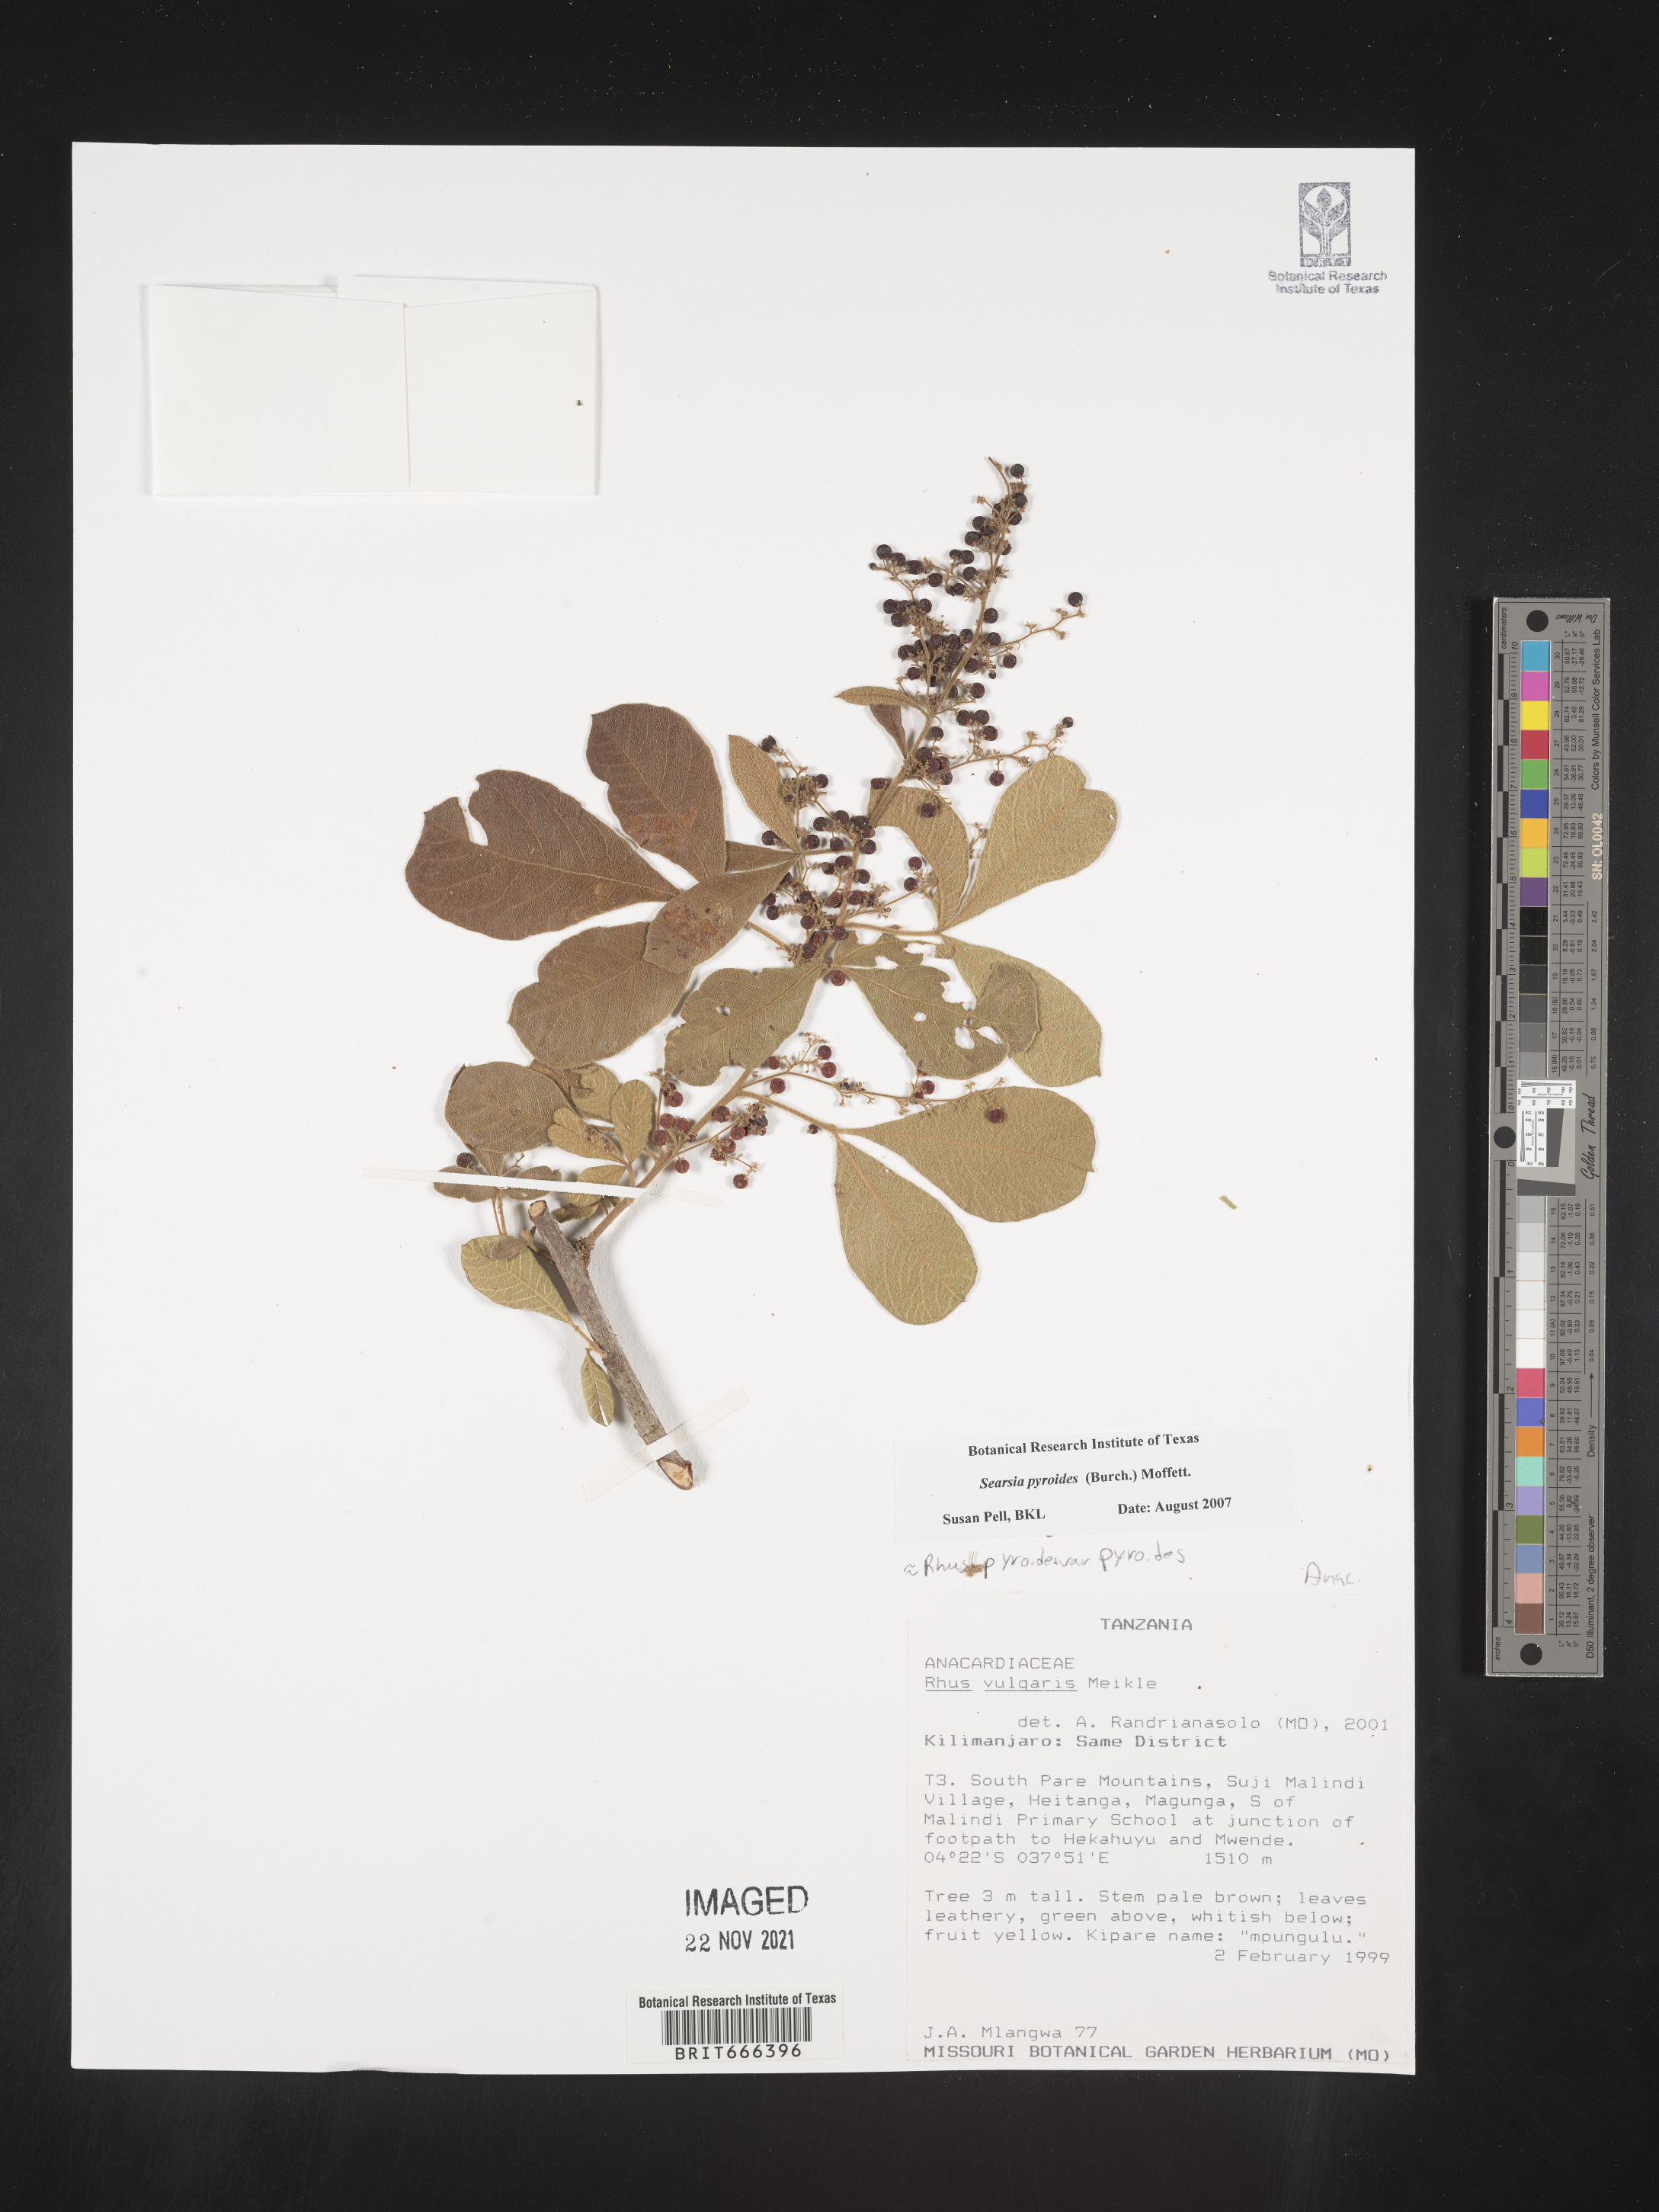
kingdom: Plantae
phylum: Tracheophyta
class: Magnoliopsida
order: Sapindales
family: Anacardiaceae
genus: Searsia
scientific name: Searsia pyroides
